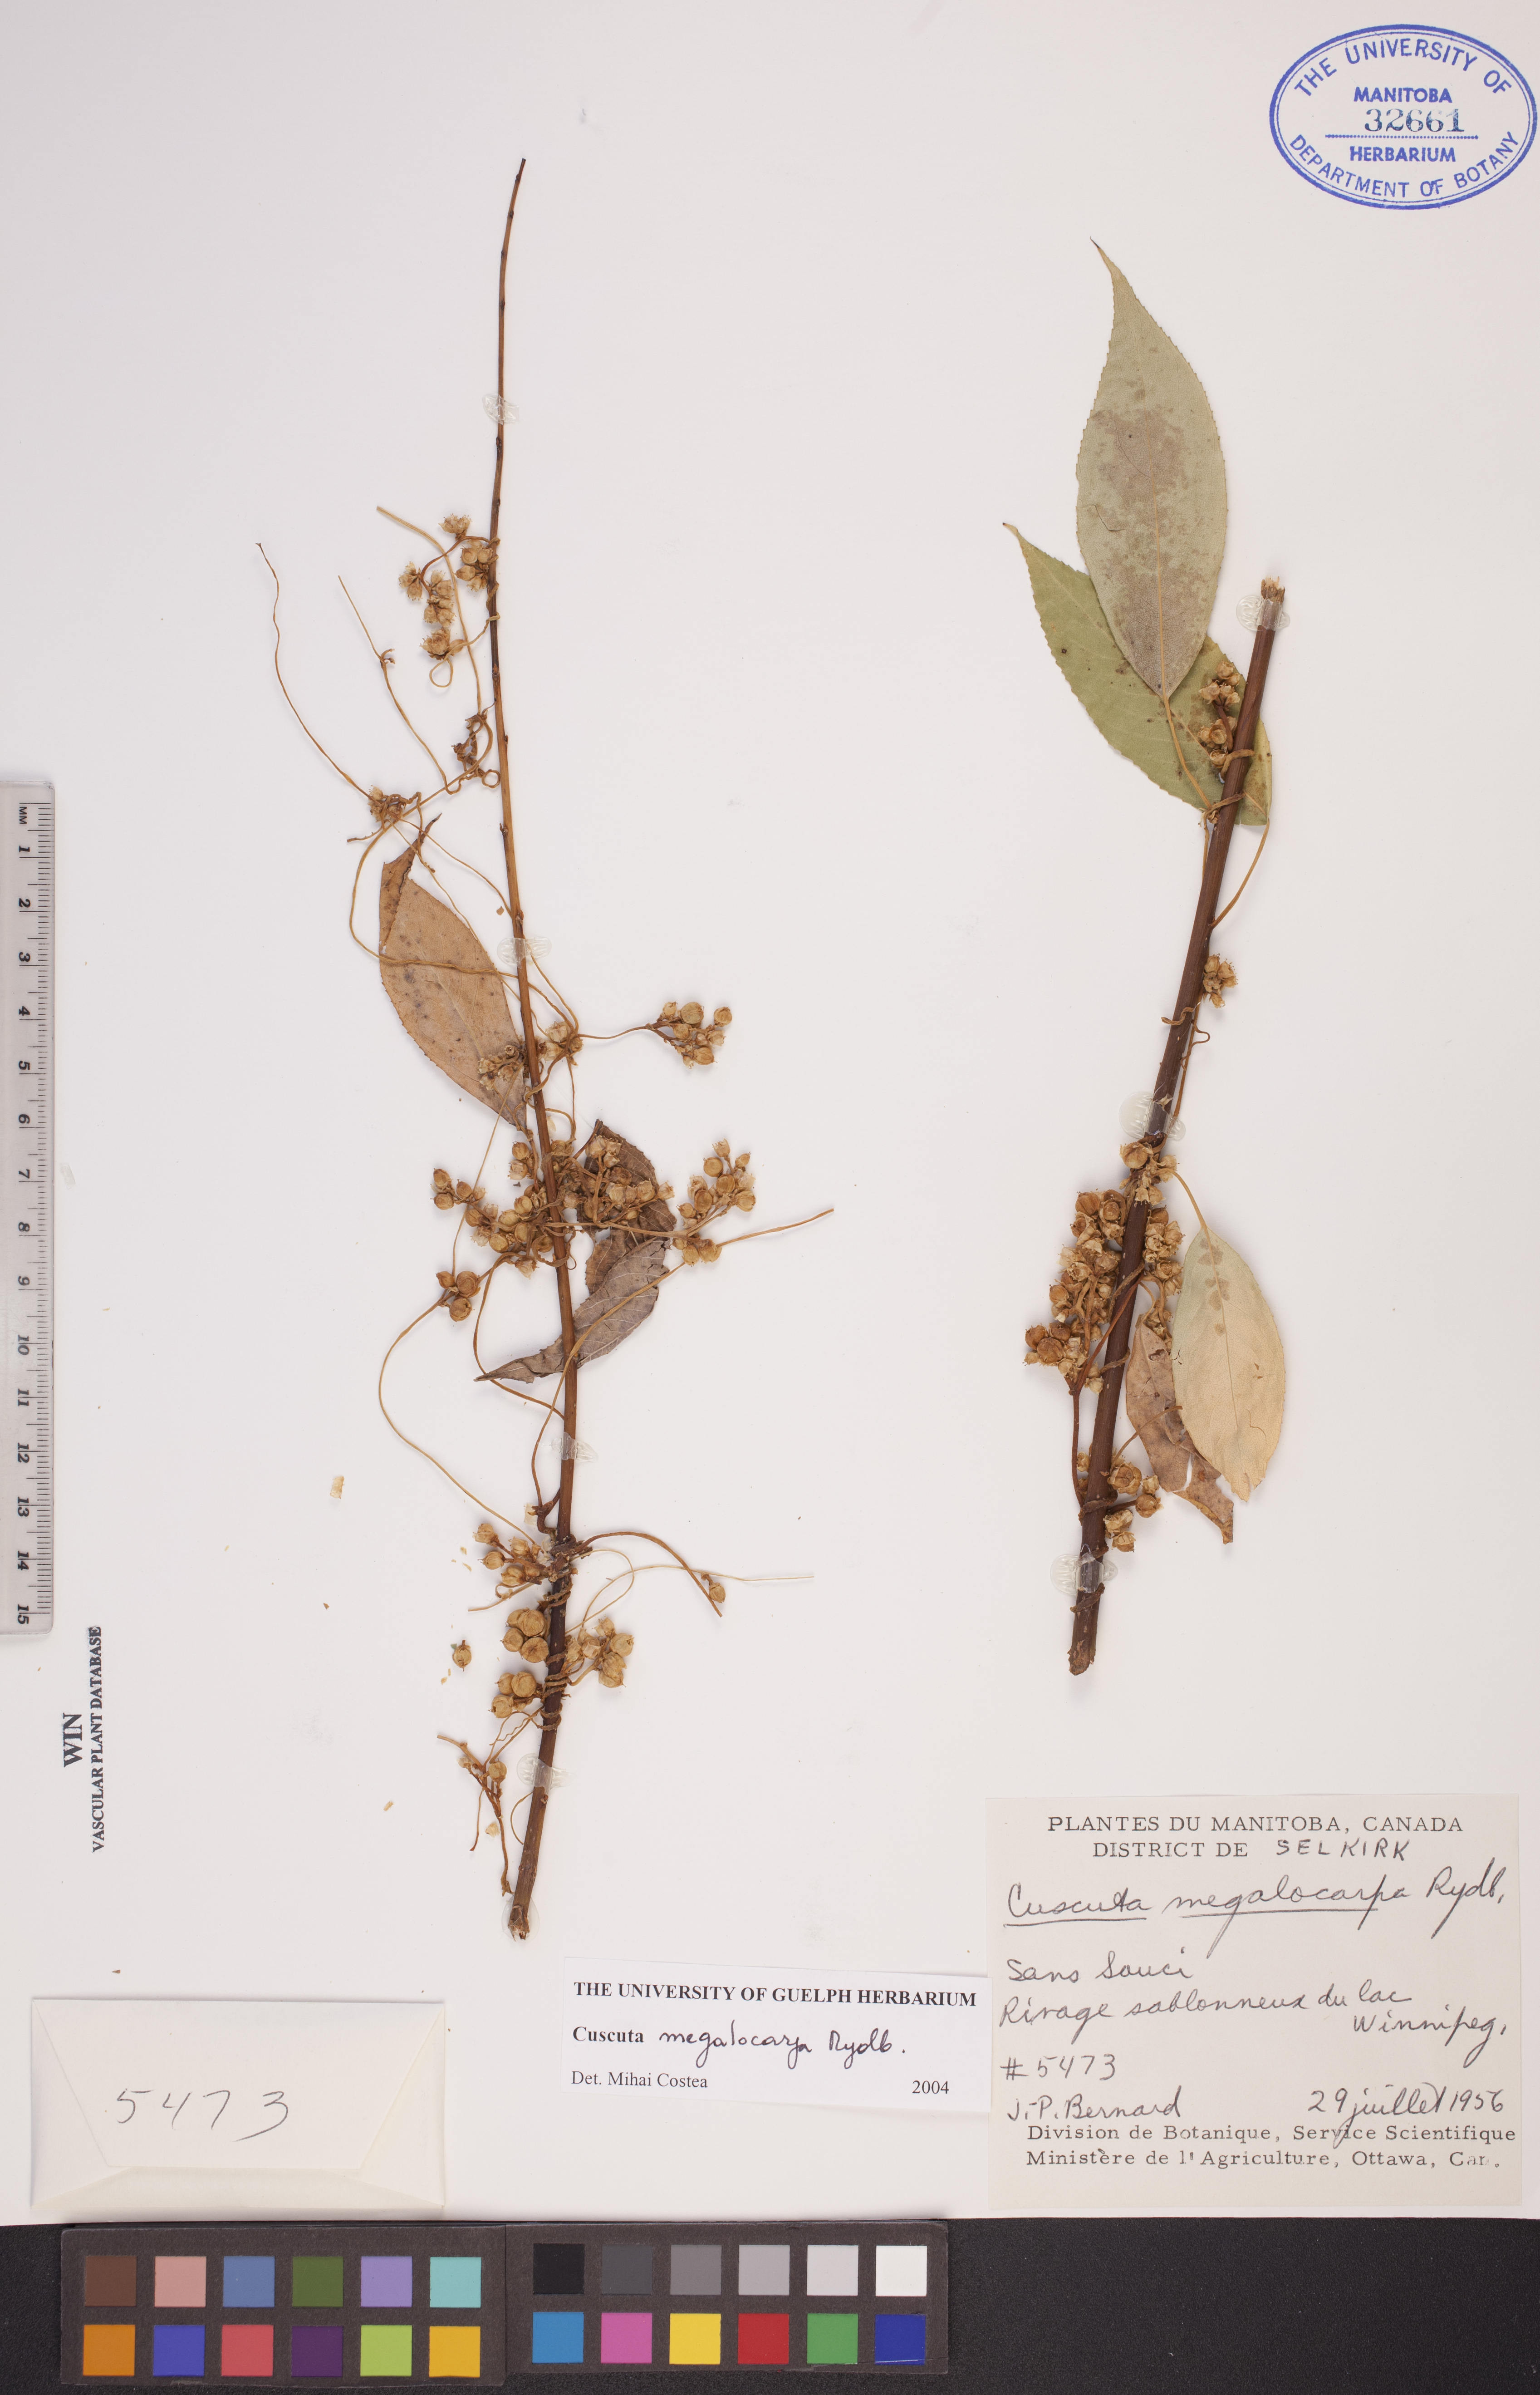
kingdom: Plantae
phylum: Tracheophyta
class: Magnoliopsida
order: Solanales
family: Convolvulaceae
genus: Cuscuta
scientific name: Cuscuta umbrosa
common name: Bigfruit dodder
